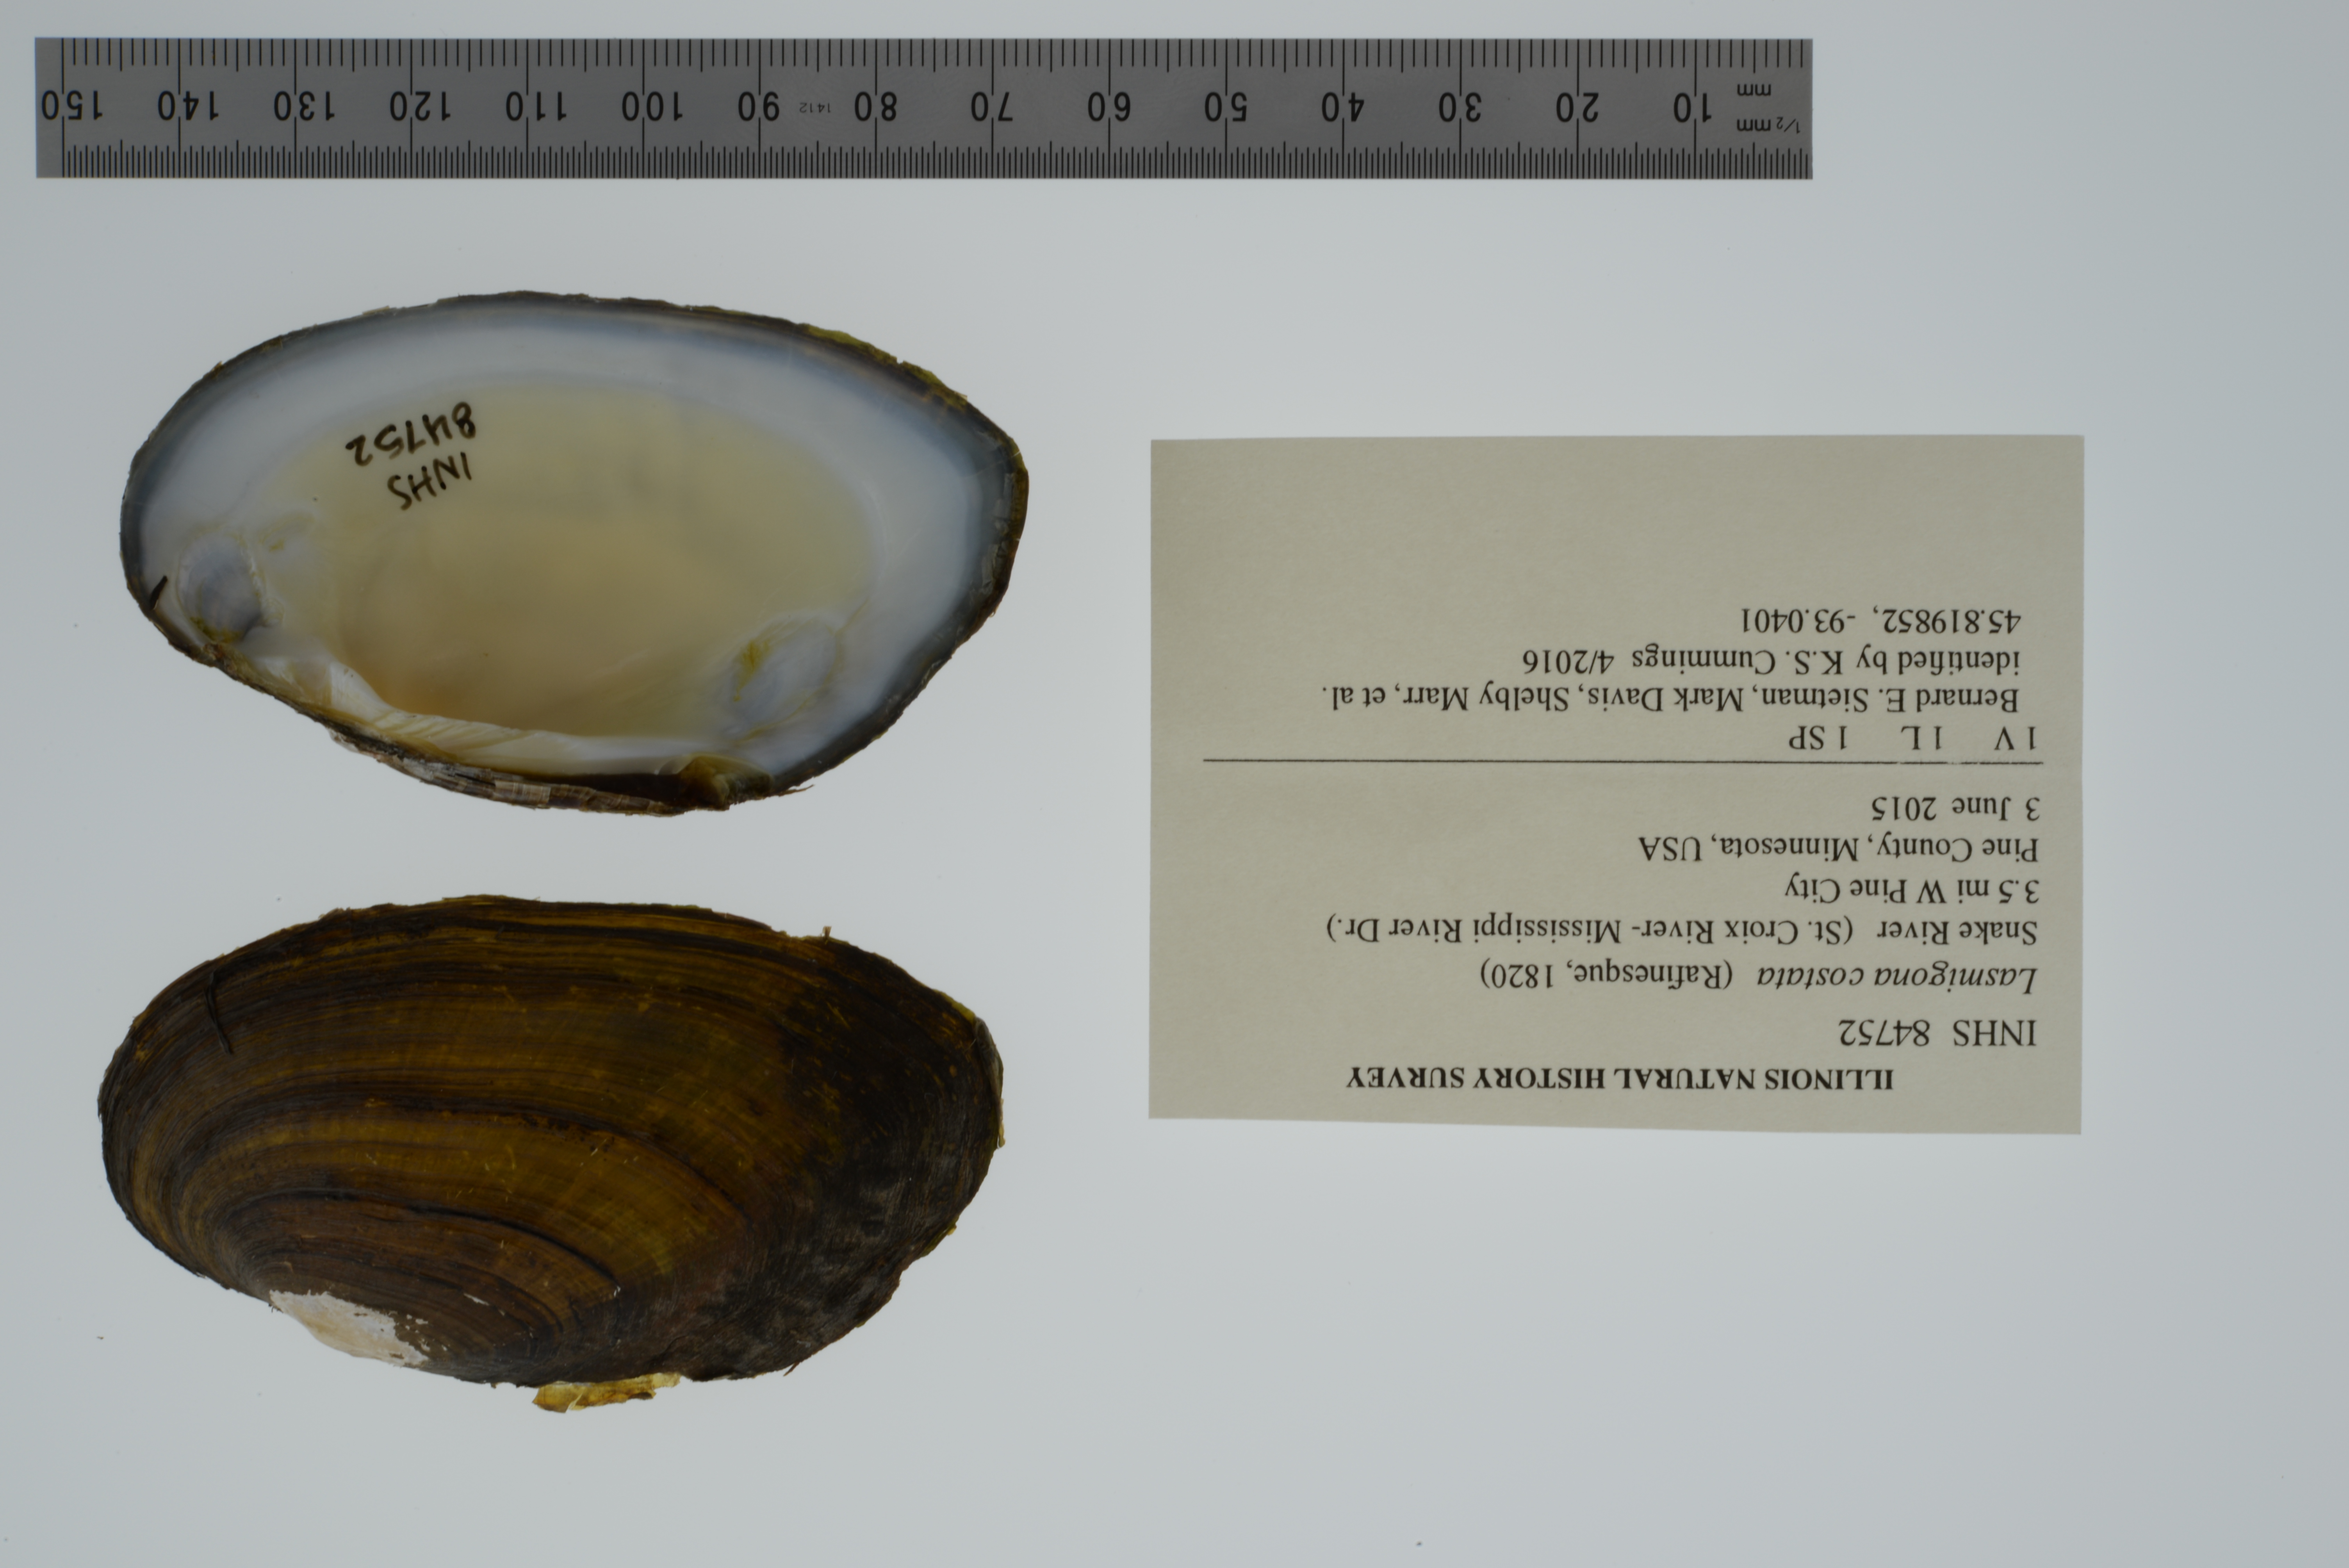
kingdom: Animalia
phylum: Mollusca
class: Bivalvia
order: Unionida
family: Unionidae
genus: Lasmigona
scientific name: Lasmigona costata
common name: Flutedshell
